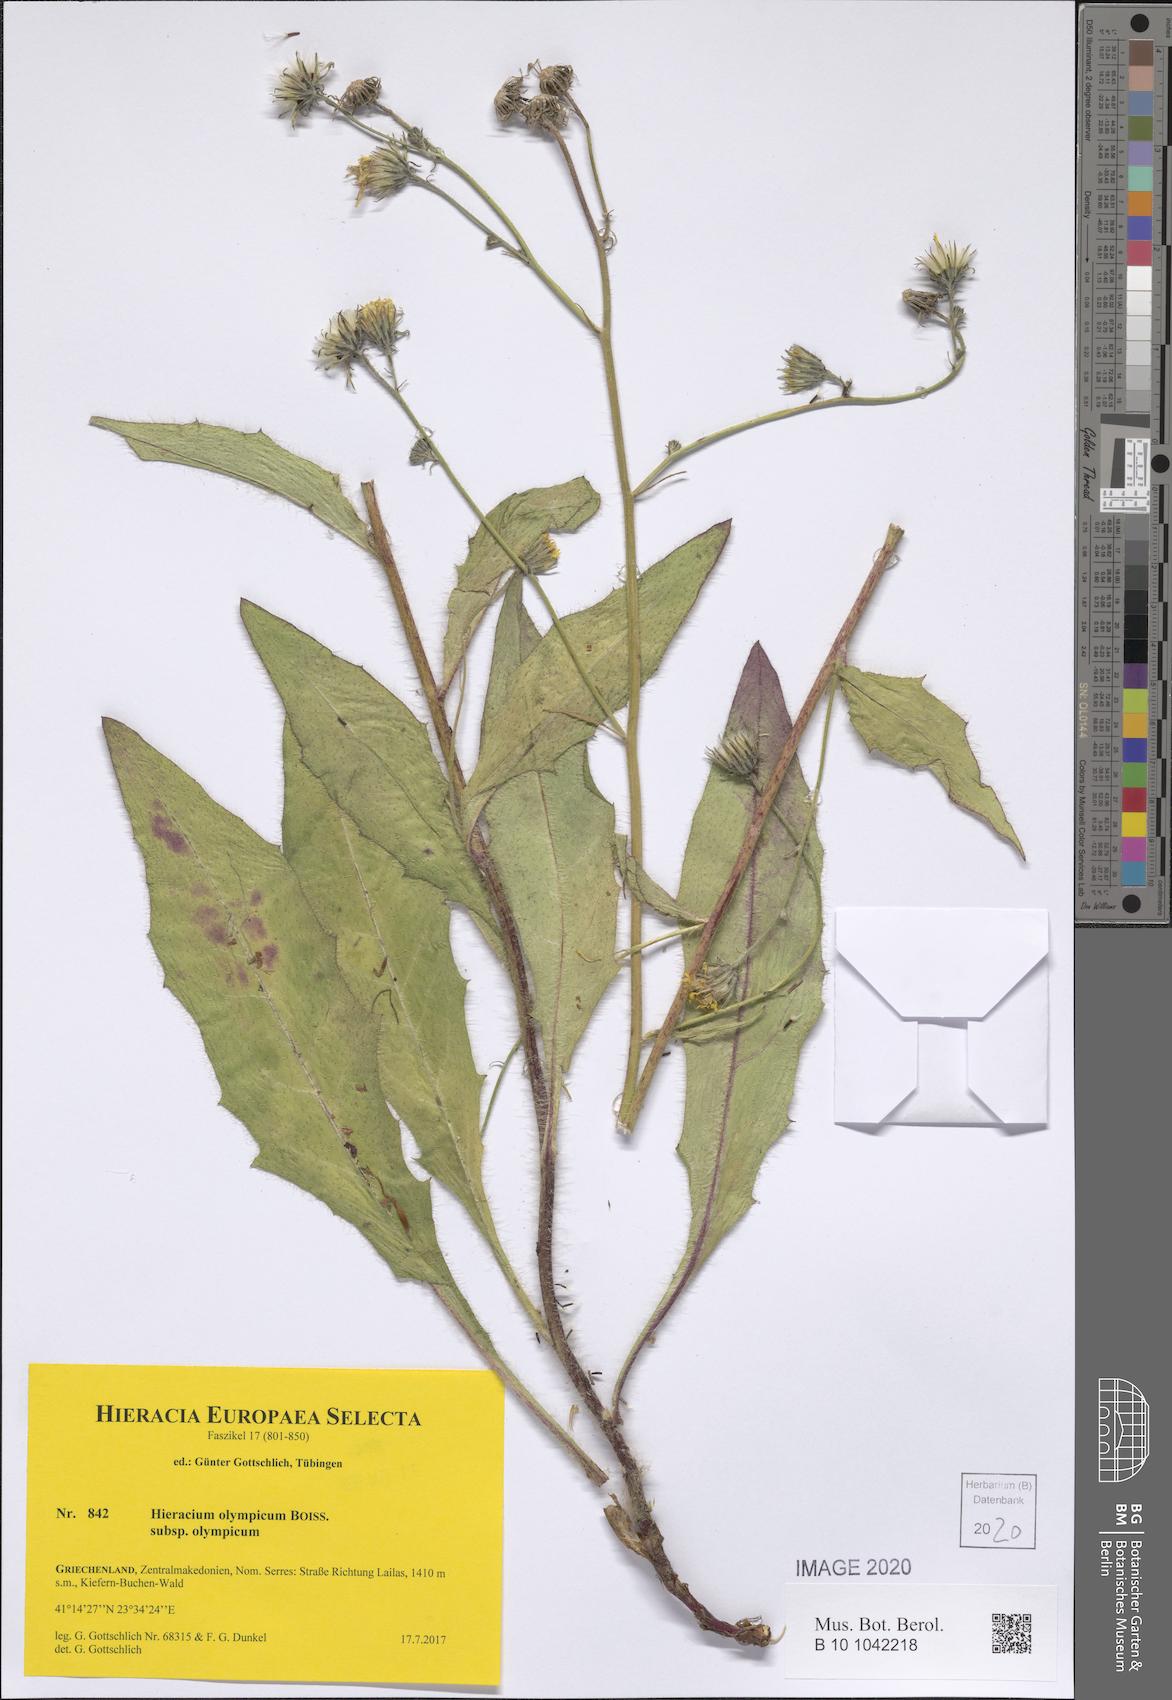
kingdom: Plantae
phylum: Tracheophyta
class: Magnoliopsida
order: Asterales
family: Asteraceae
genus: Hieracium
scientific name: Hieracium olympicum
